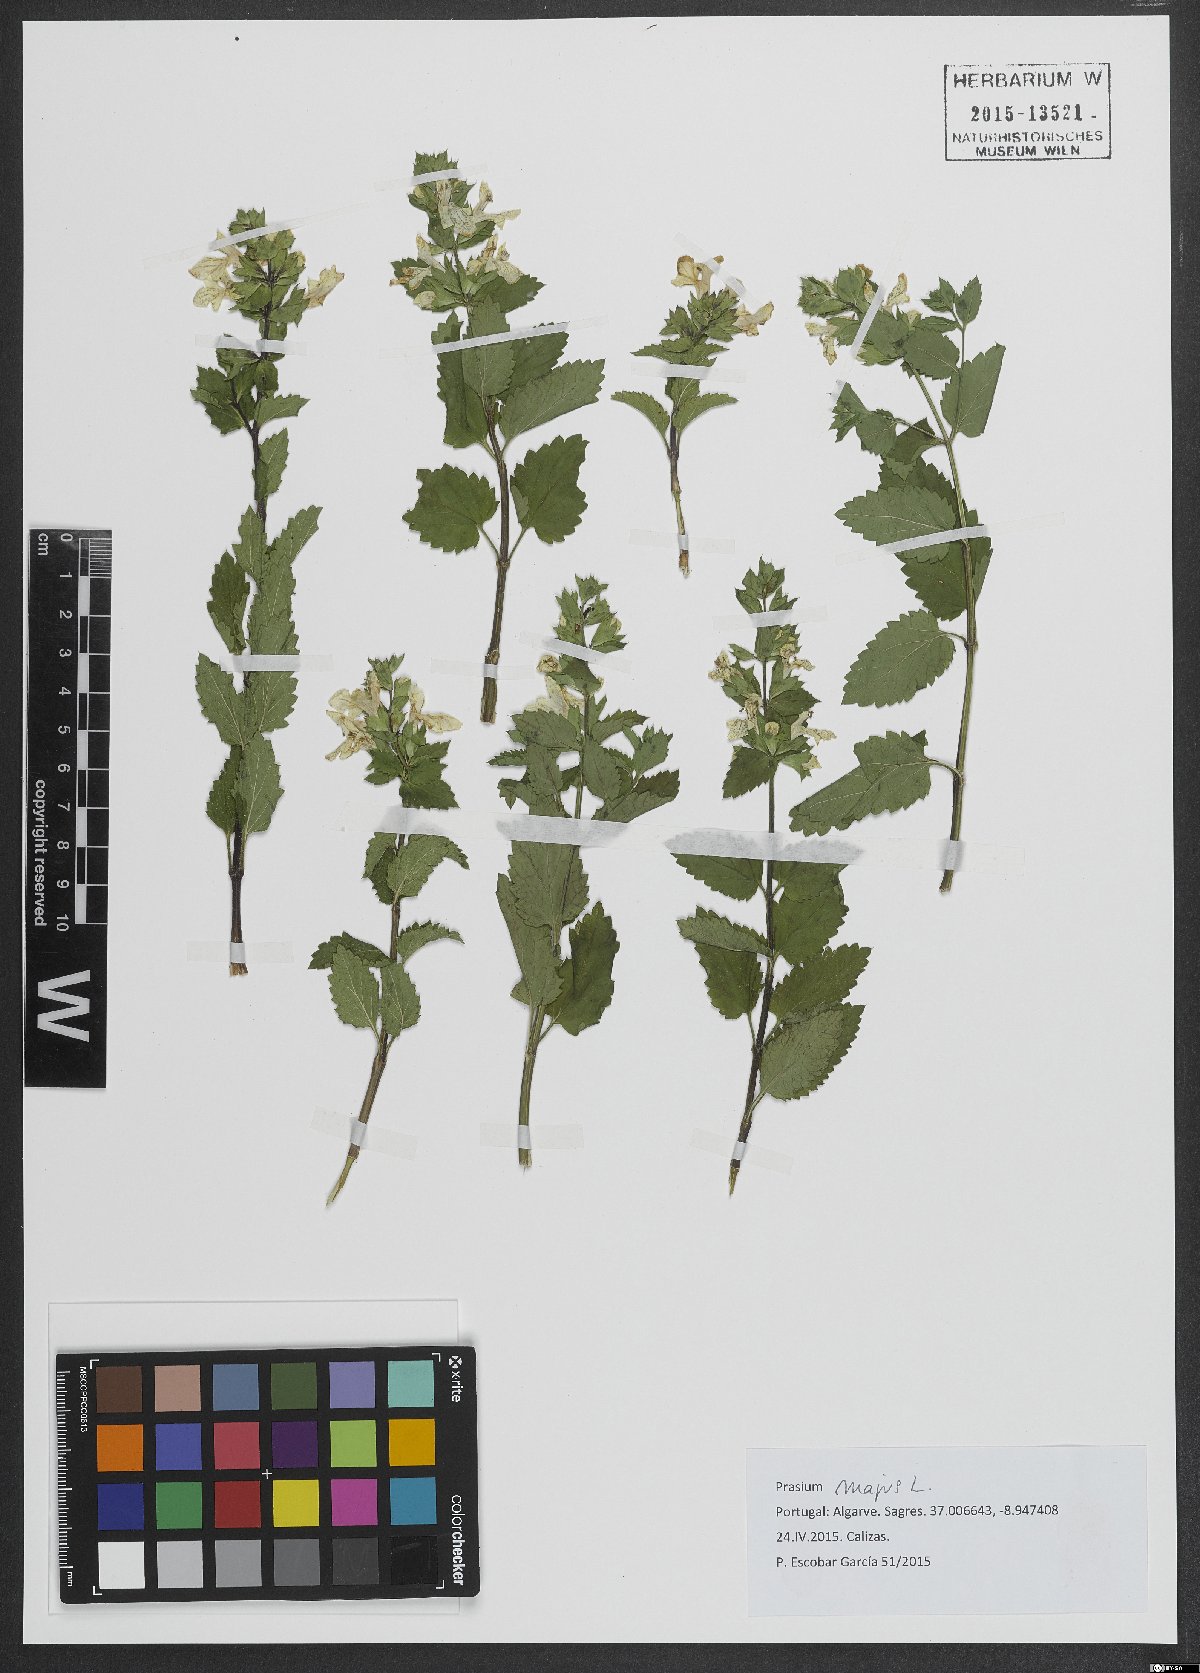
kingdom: Plantae
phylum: Tracheophyta
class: Magnoliopsida
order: Lamiales
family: Lamiaceae
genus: Prasium
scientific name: Prasium majus
